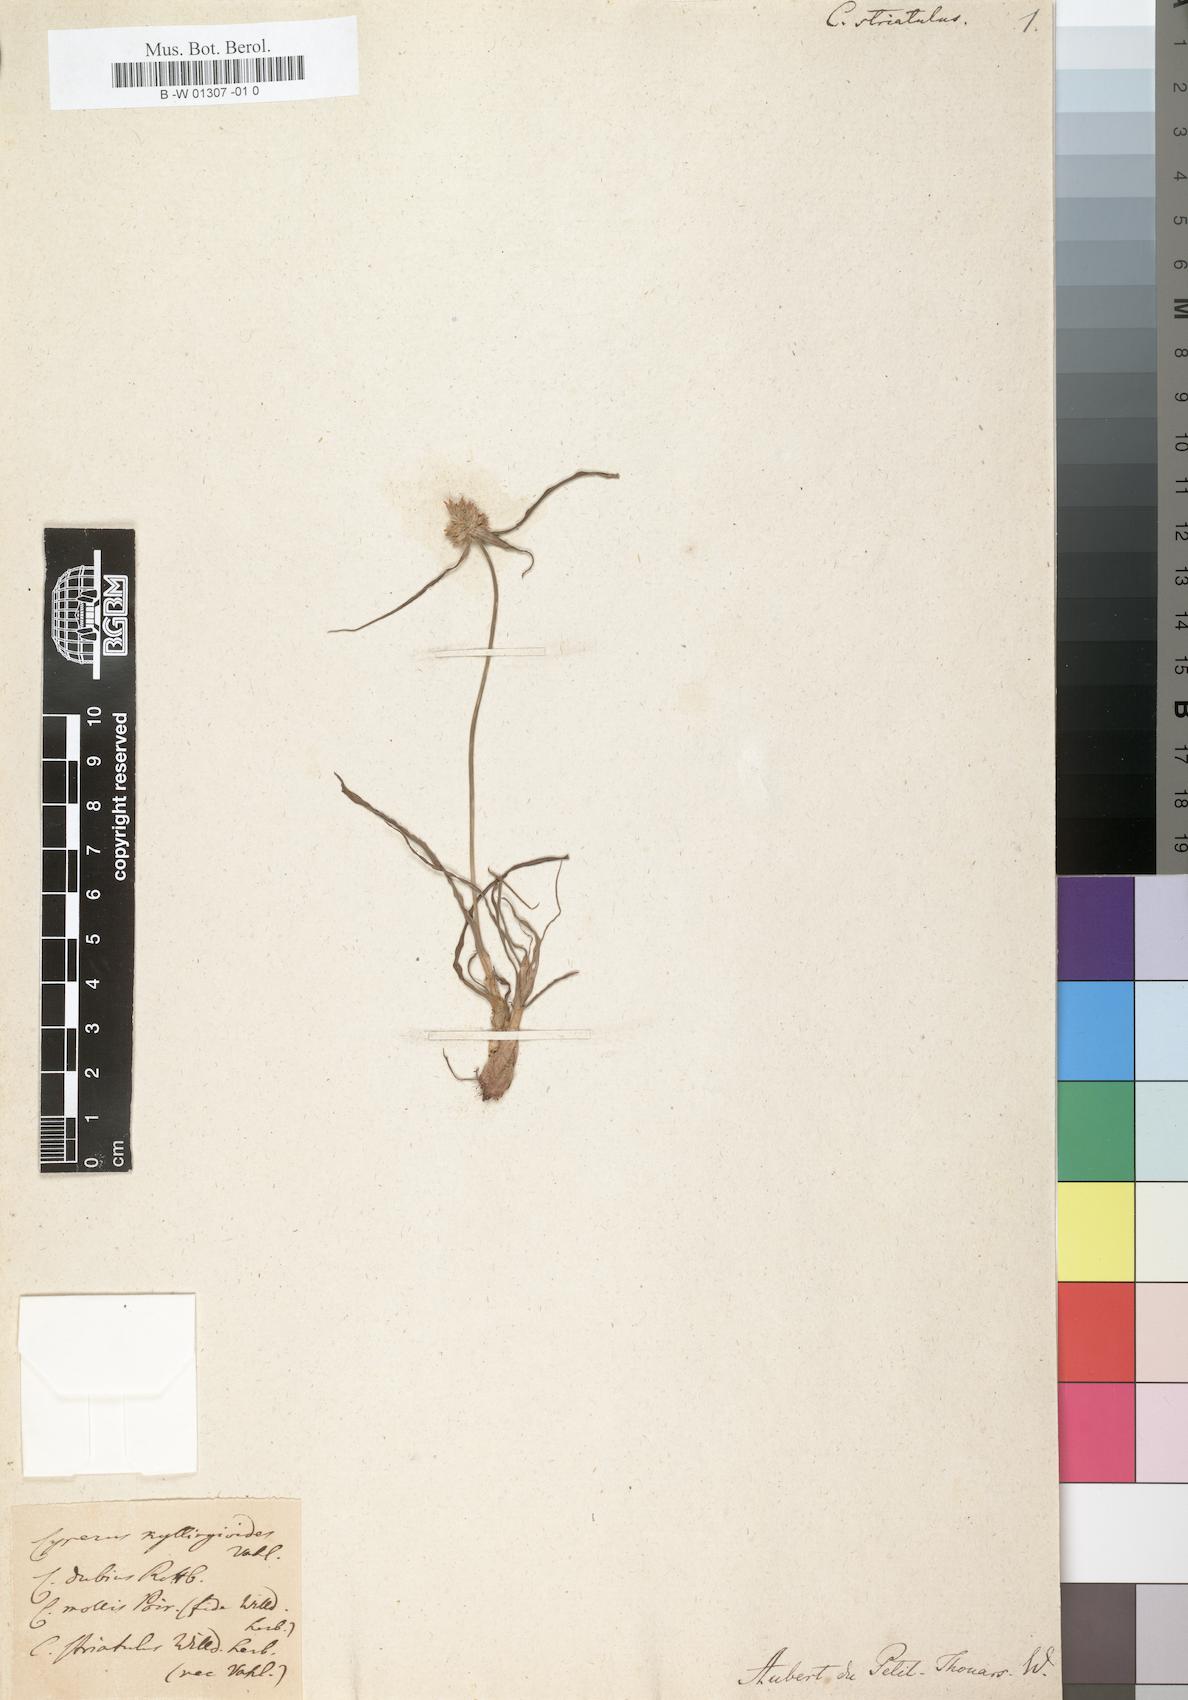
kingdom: Plantae
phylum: Tracheophyta
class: Liliopsida
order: Poales
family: Cyperaceae
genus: Cyperus
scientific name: Cyperus niveus
